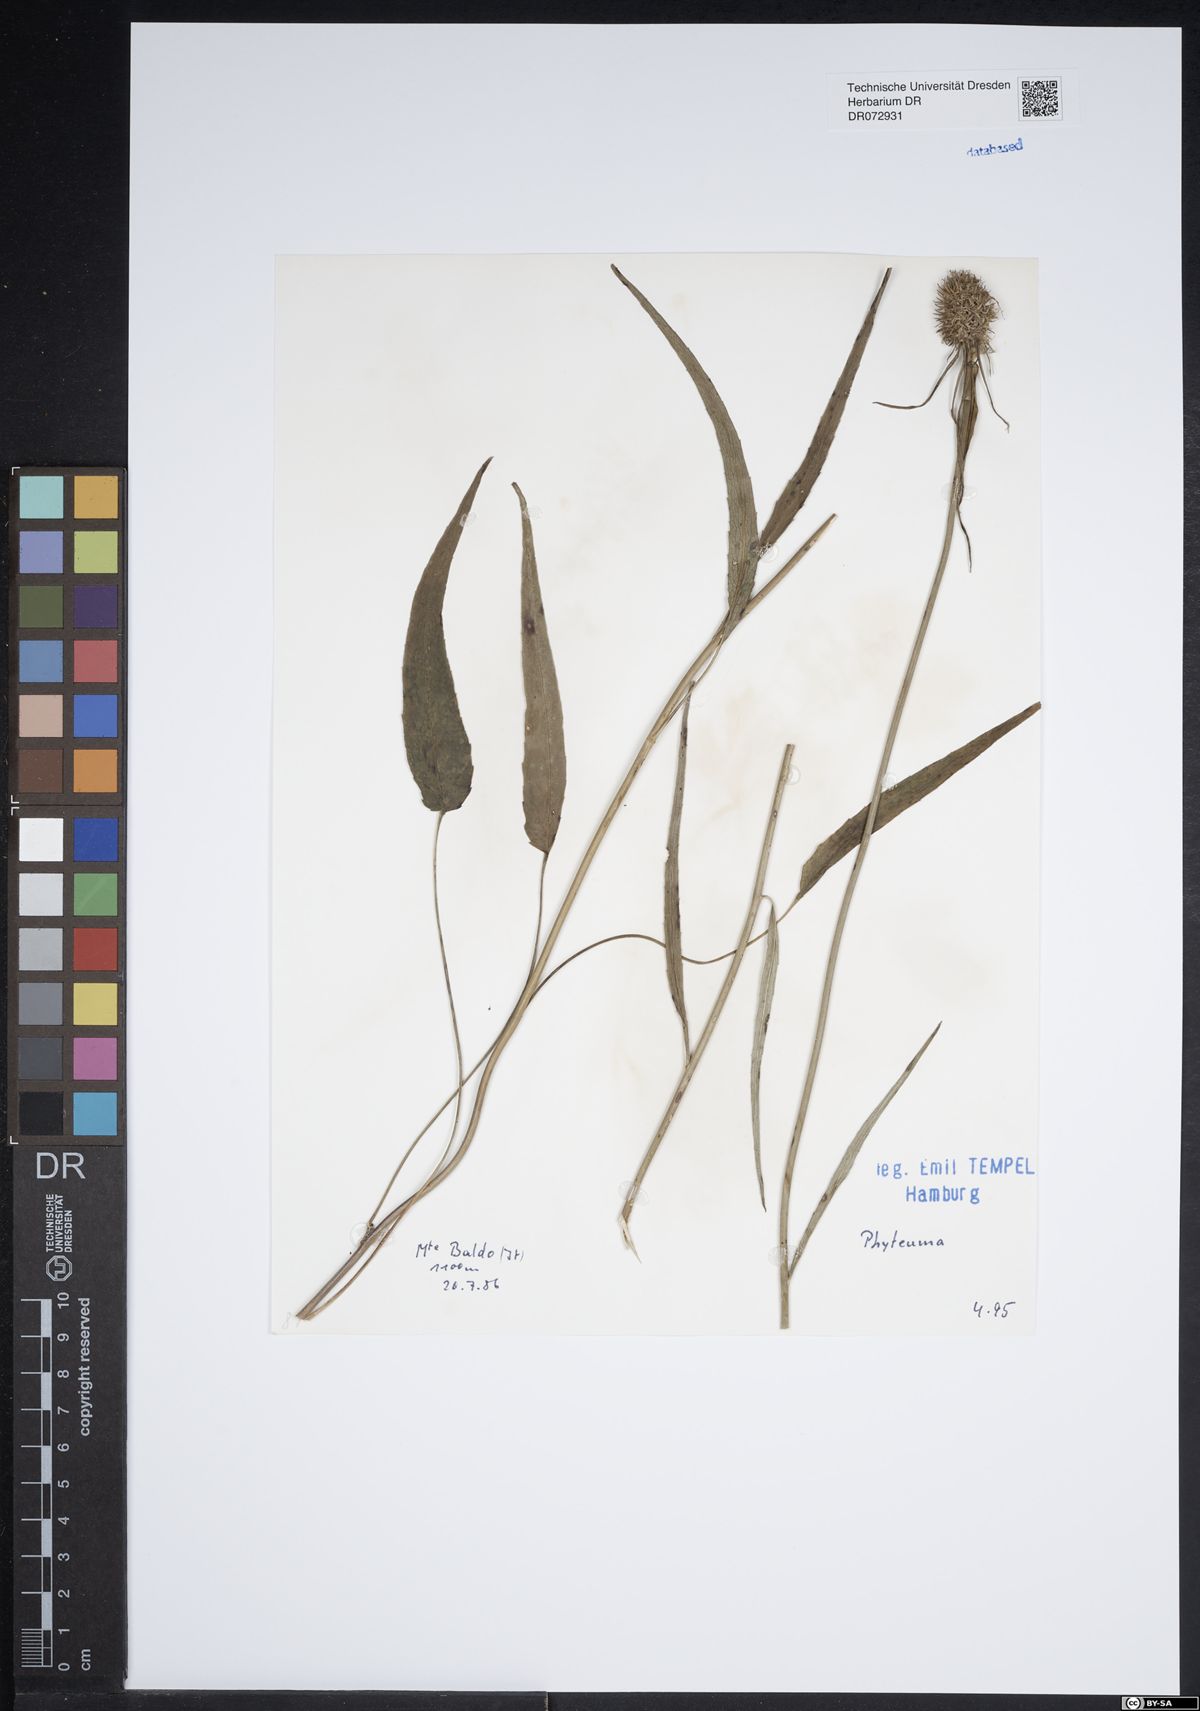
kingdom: Plantae
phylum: Tracheophyta
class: Magnoliopsida
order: Asterales
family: Campanulaceae
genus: Phyteuma
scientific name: Phyteuma
